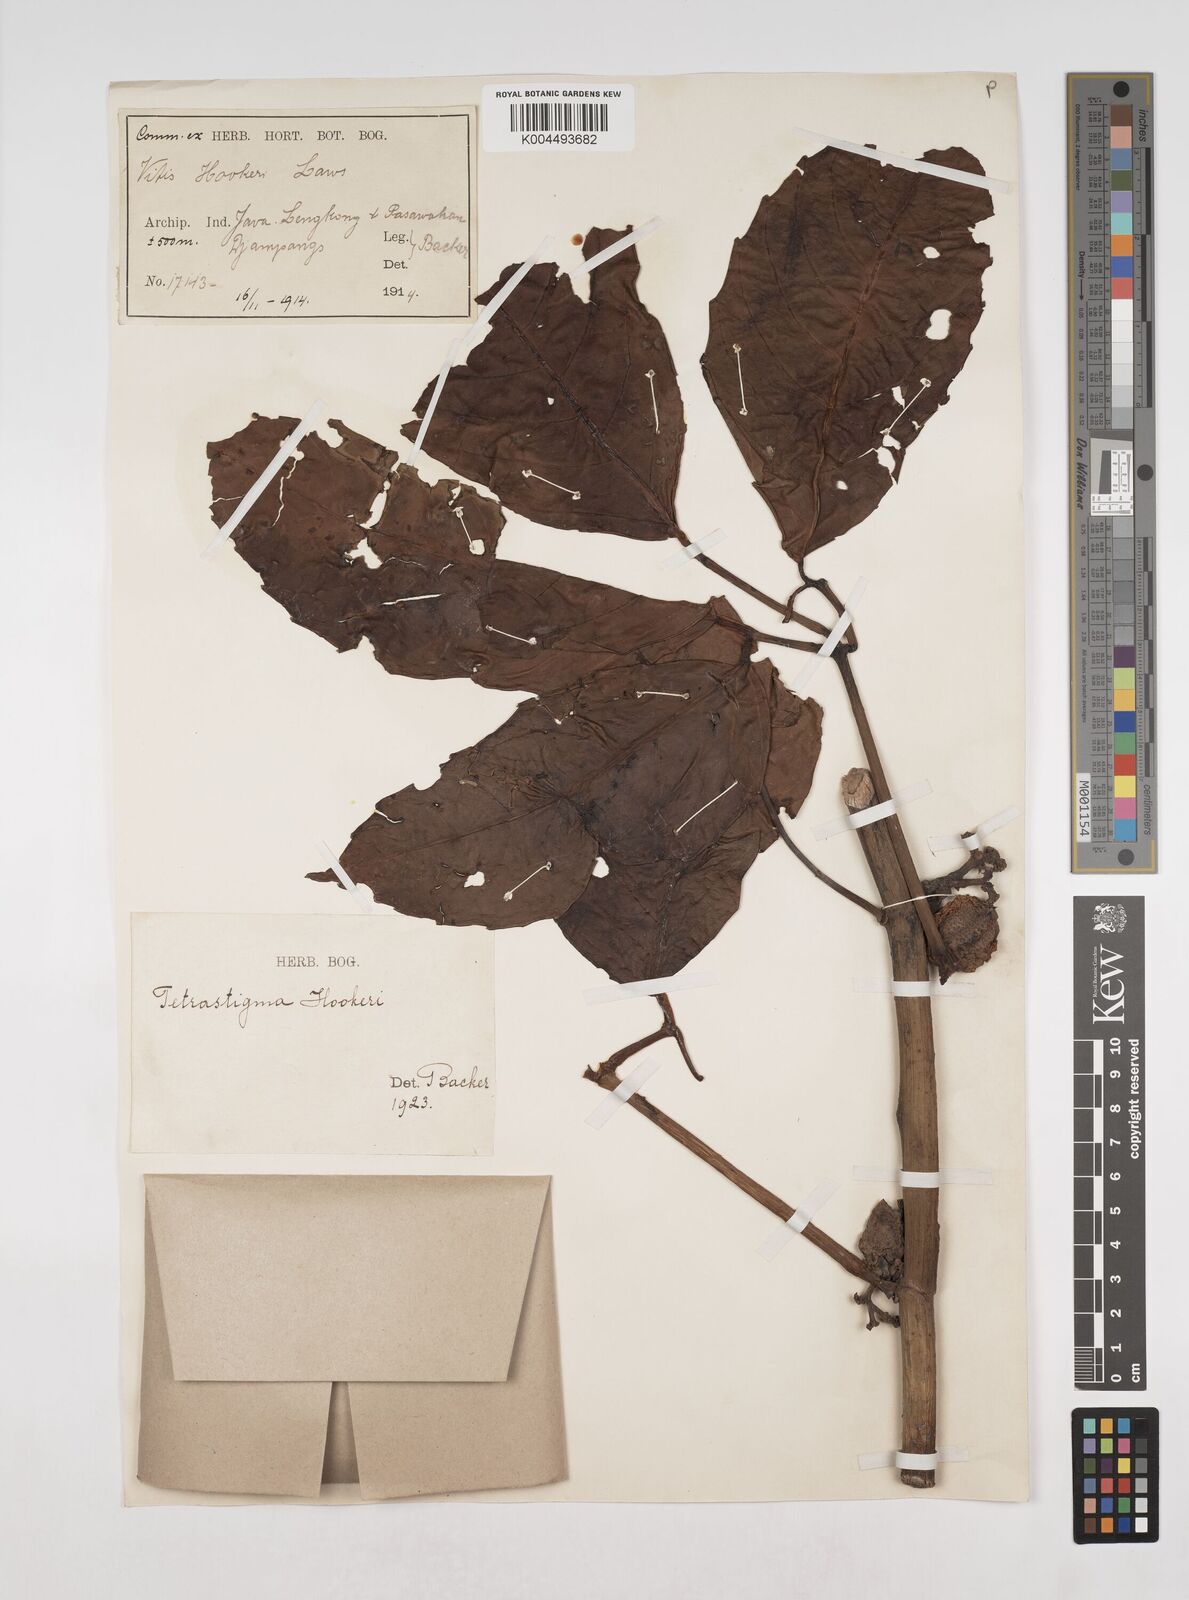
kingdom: Plantae
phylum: Tracheophyta
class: Magnoliopsida
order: Vitales
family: Vitaceae
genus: Tetrastigma
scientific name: Tetrastigma
